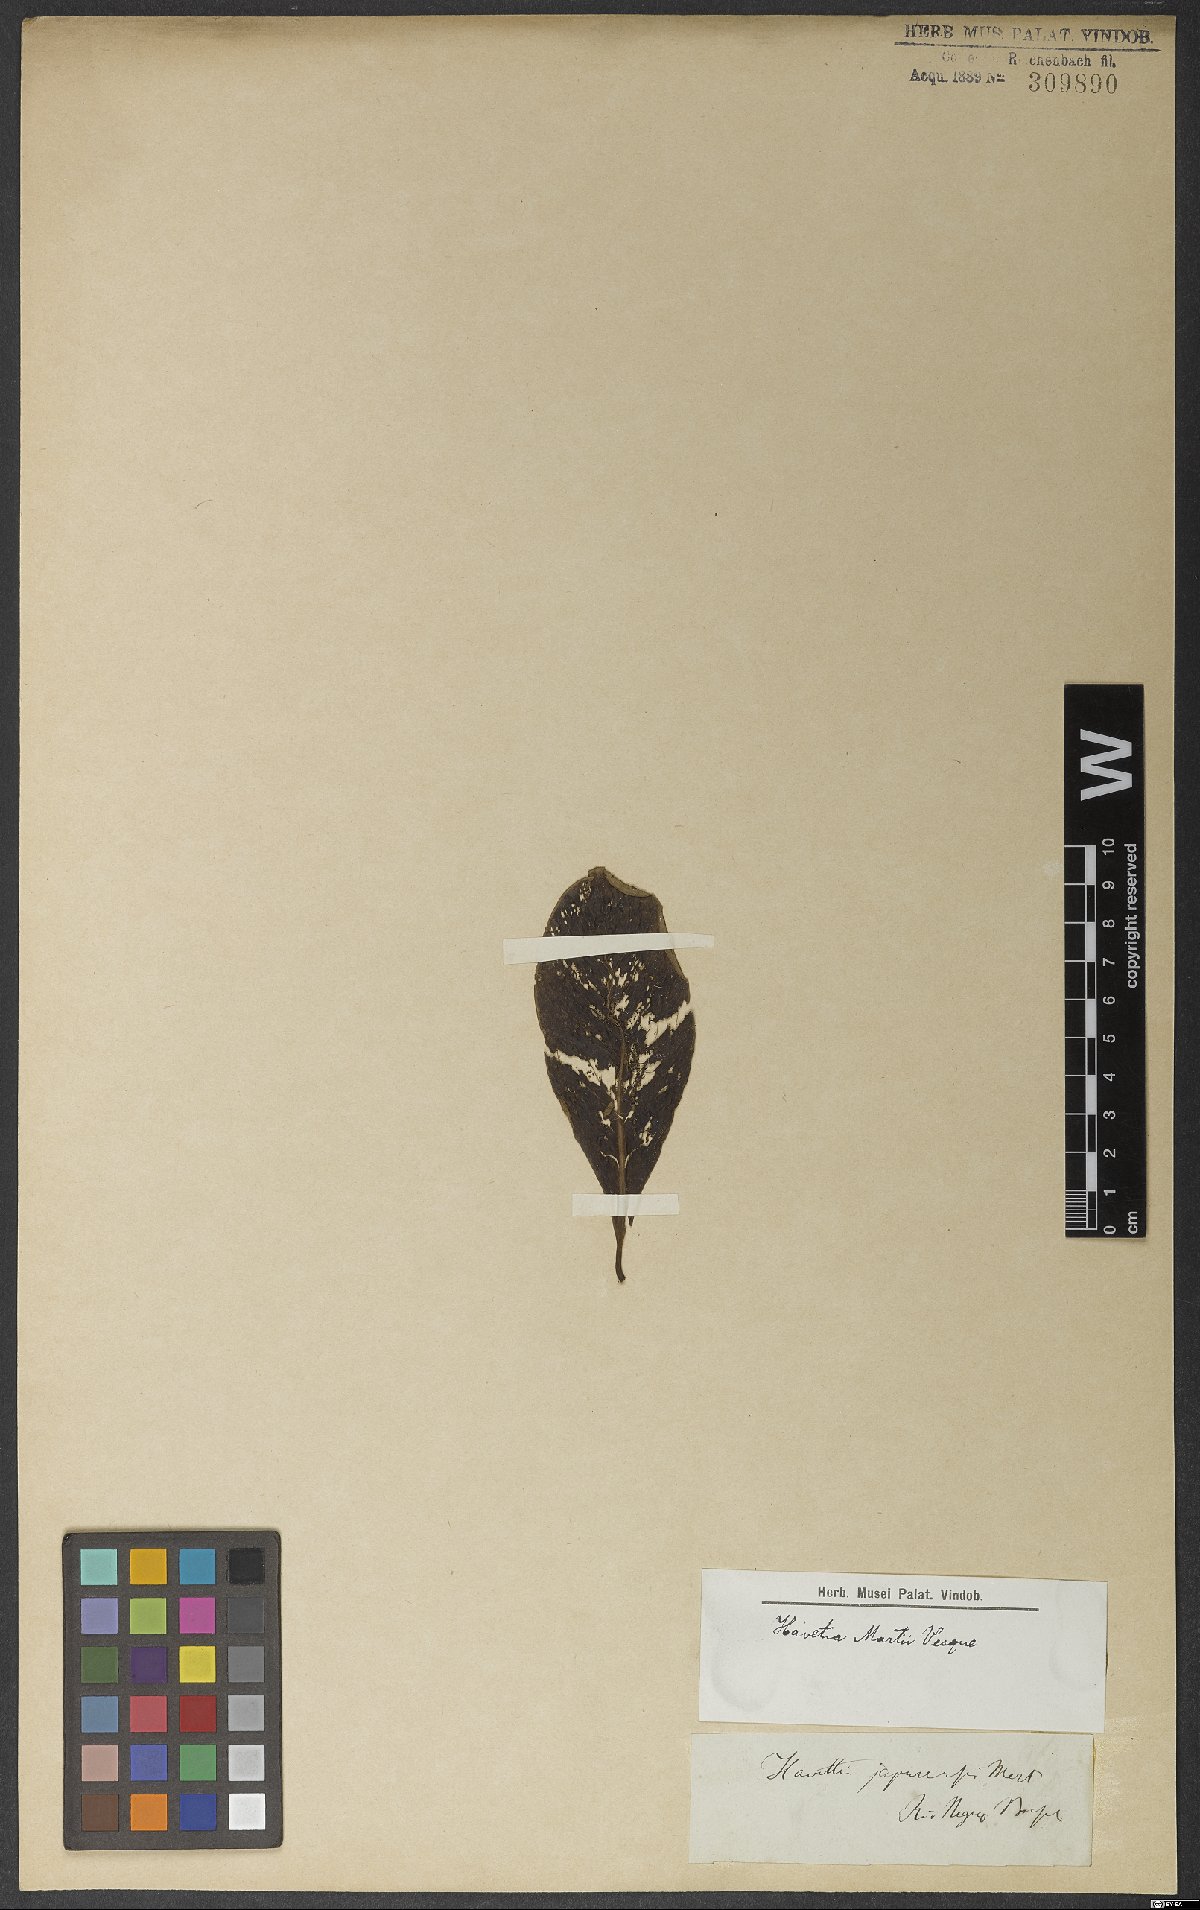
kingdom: Plantae
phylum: Tracheophyta
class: Magnoliopsida
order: Malpighiales
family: Clusiaceae
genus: Clusia
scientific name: Clusia colombiana
